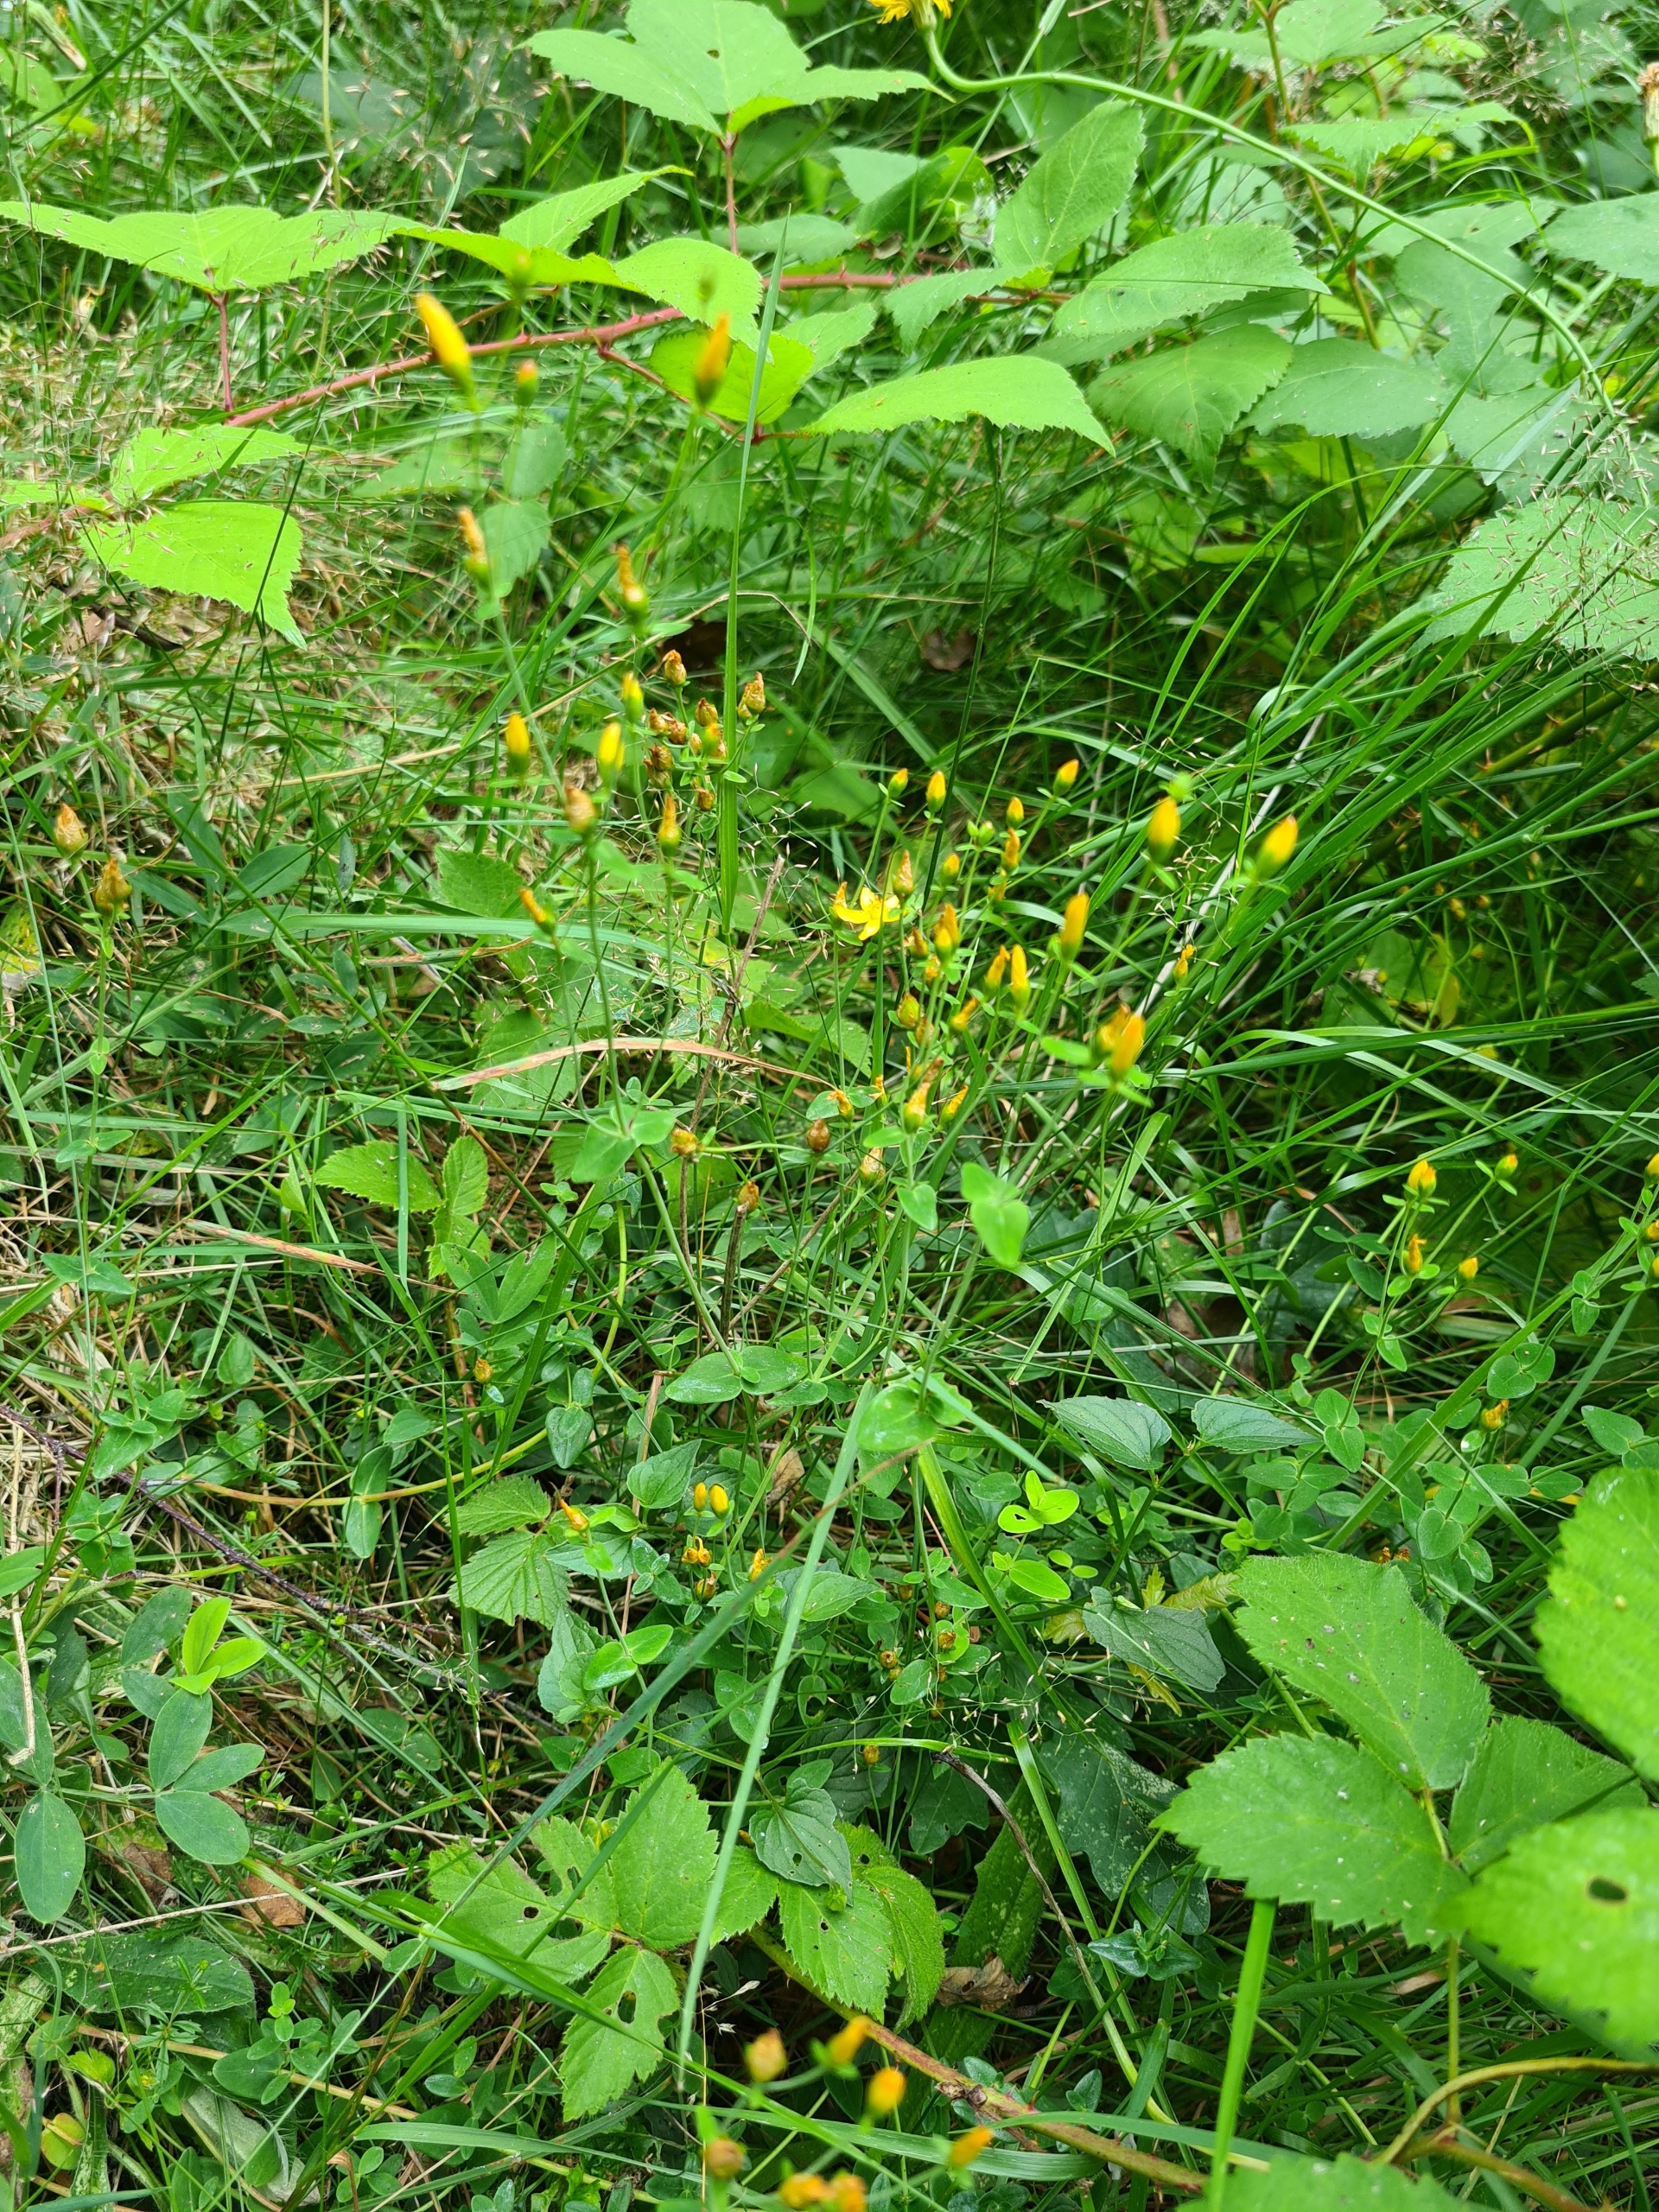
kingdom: Plantae
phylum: Tracheophyta
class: Magnoliopsida
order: Malpighiales
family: Hypericaceae
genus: Hypericum
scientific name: Hypericum pulchrum
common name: Smuk perikon
